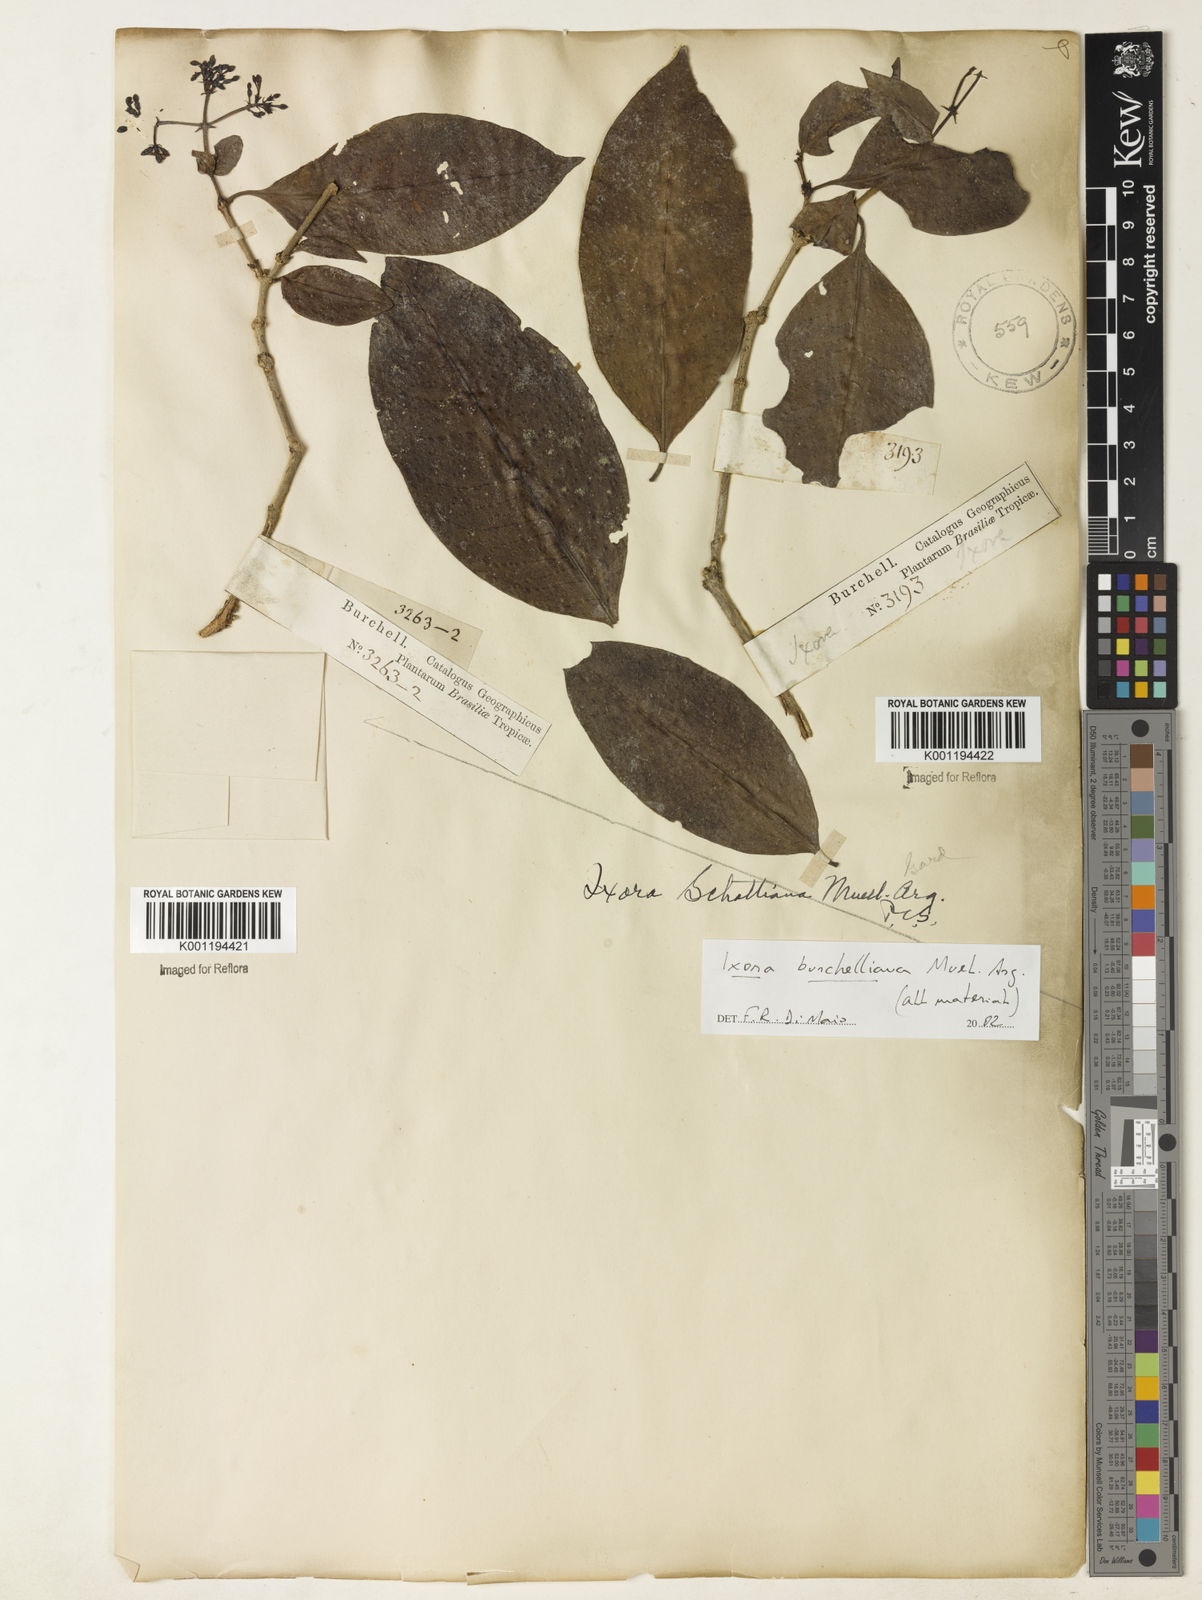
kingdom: Plantae
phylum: Tracheophyta
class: Magnoliopsida
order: Gentianales
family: Rubiaceae
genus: Ixora
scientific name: Ixora
